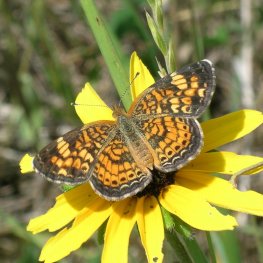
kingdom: Animalia
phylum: Arthropoda
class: Insecta
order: Lepidoptera
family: Nymphalidae
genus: Phyciodes
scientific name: Phyciodes tharos
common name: Pearl Crescent
